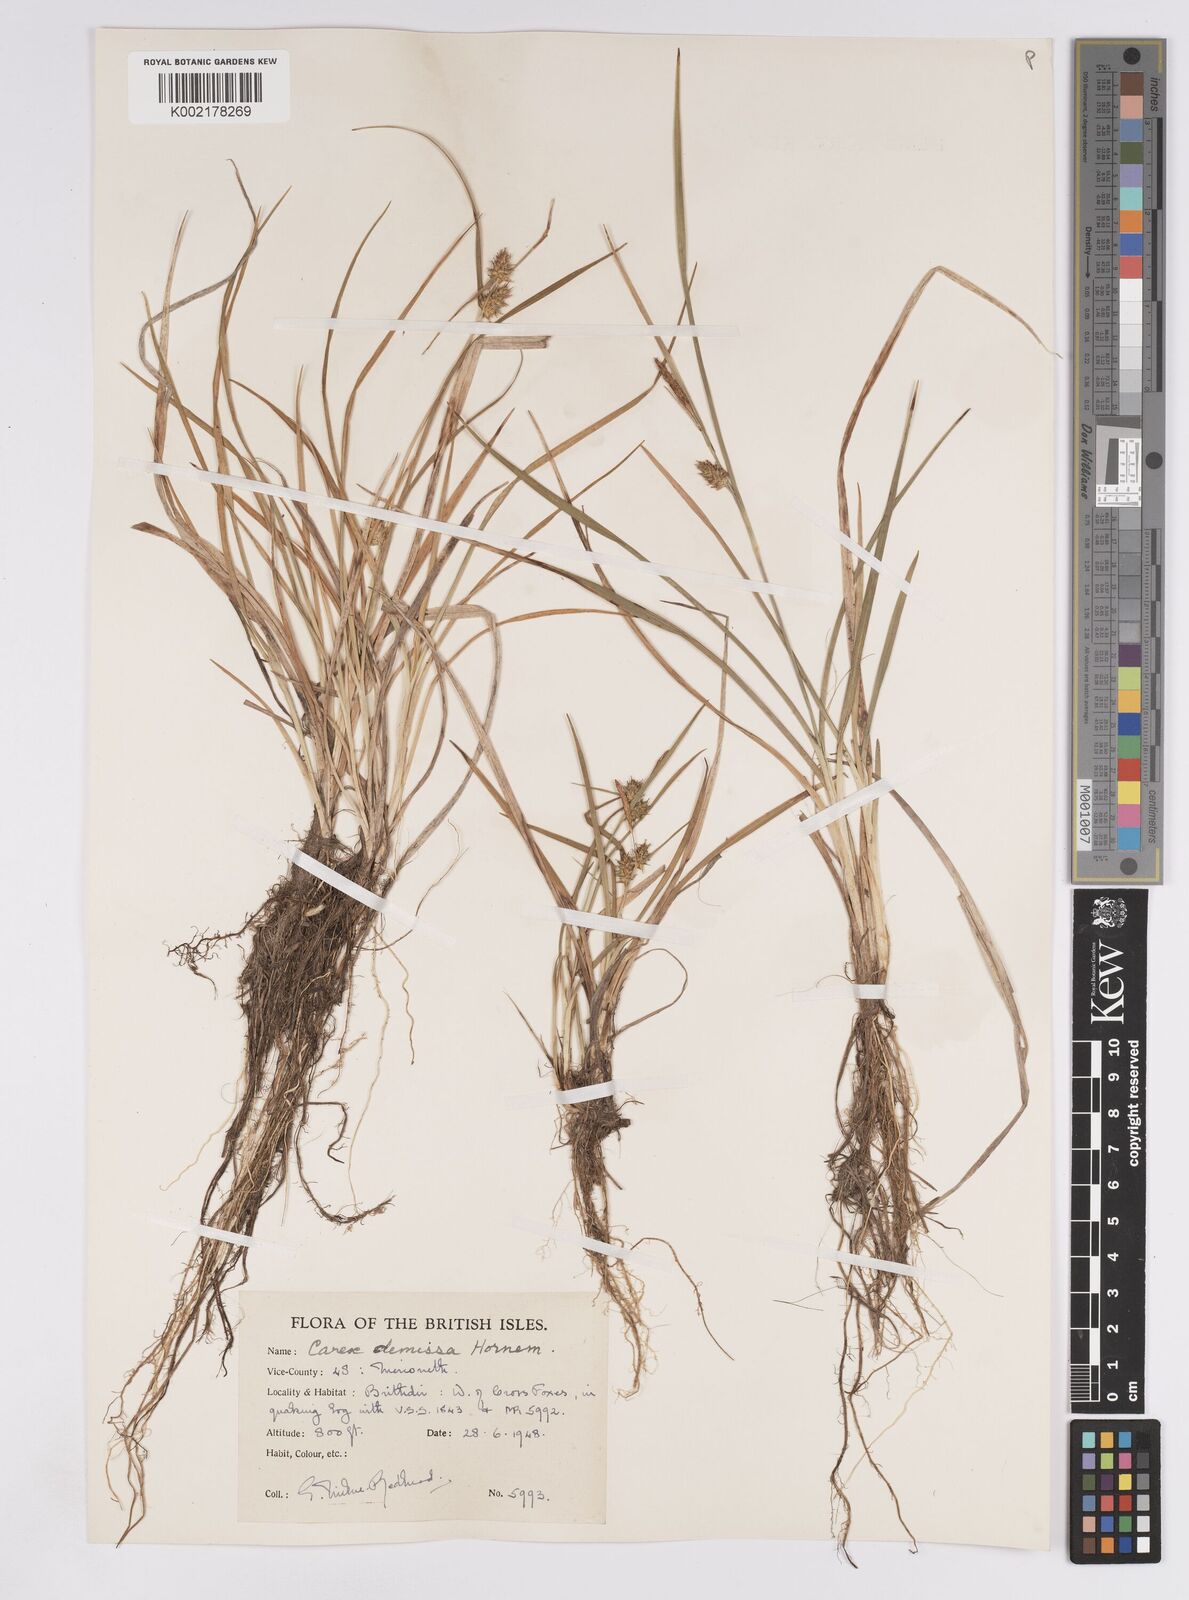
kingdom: Plantae
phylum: Tracheophyta
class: Liliopsida
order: Poales
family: Cyperaceae
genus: Carex
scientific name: Carex demissa
